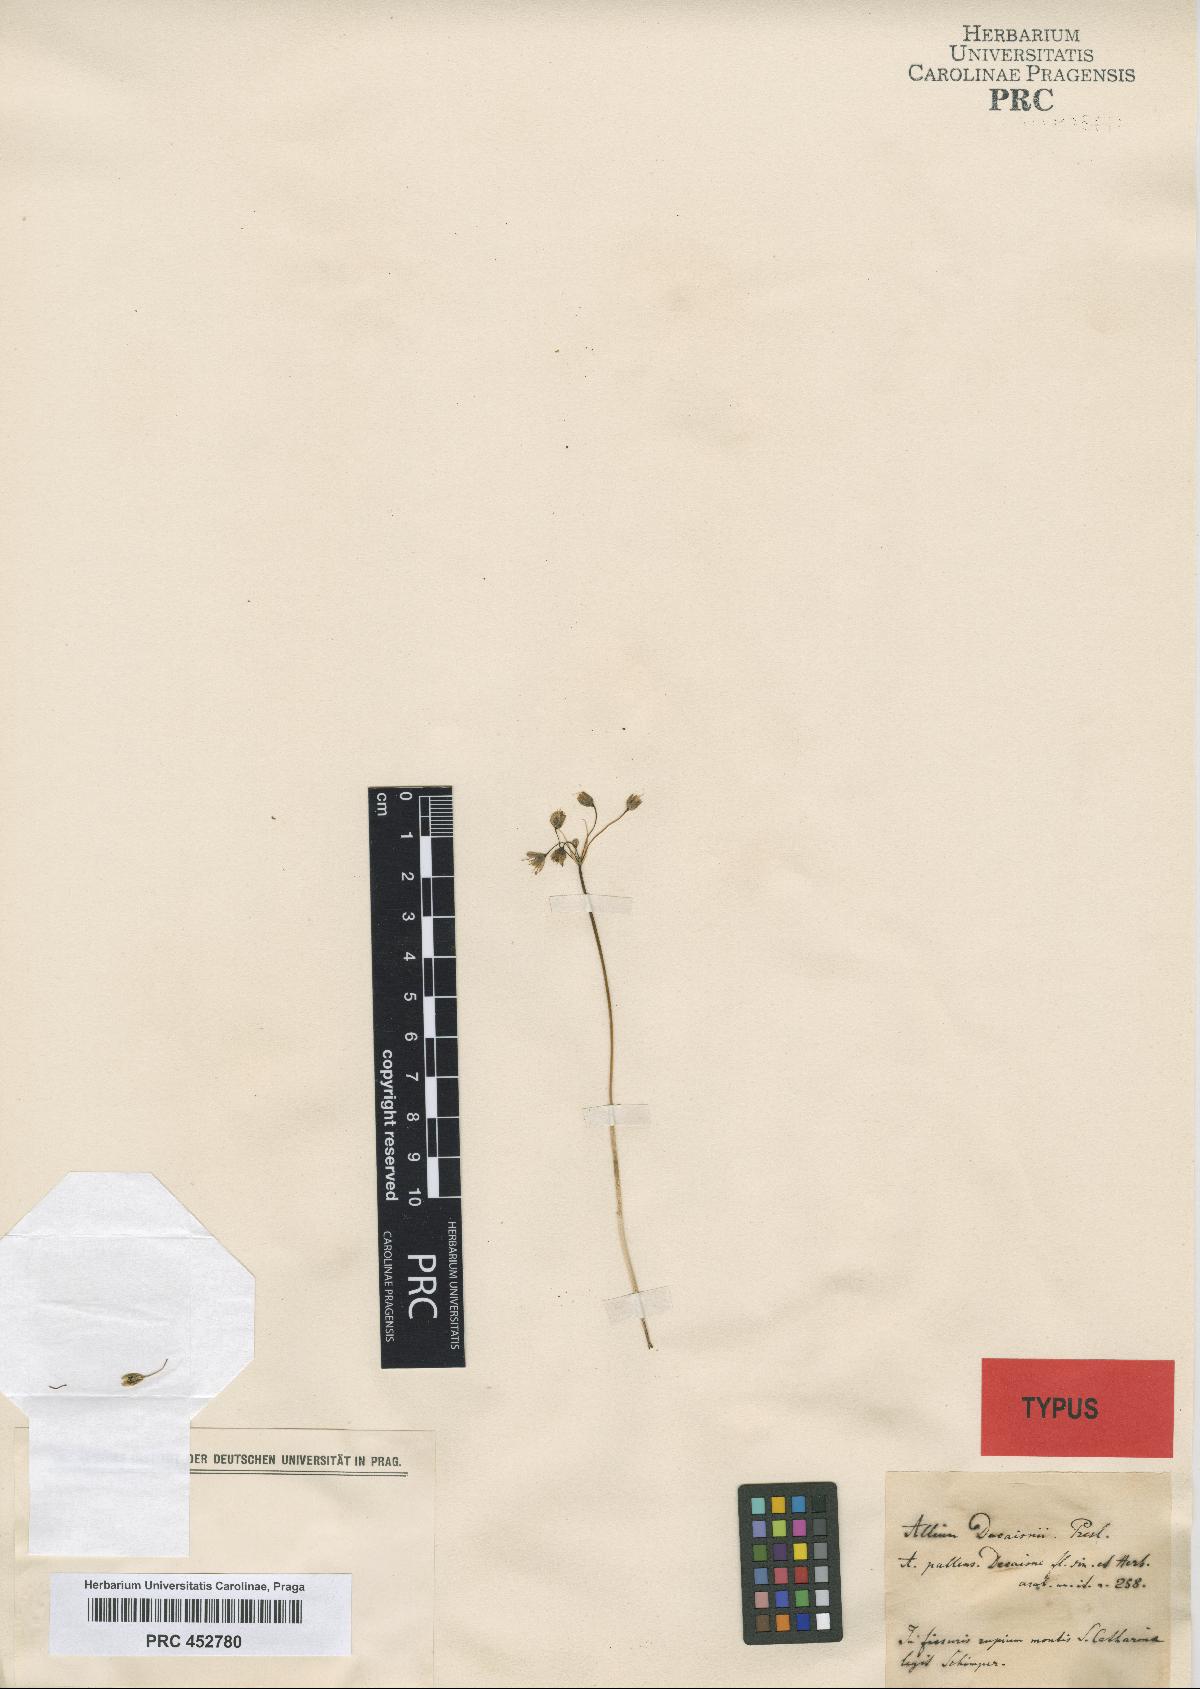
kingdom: Plantae
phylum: Tracheophyta
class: Liliopsida
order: Asparagales
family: Amaryllidaceae
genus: Allium
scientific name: Allium decaisnei
